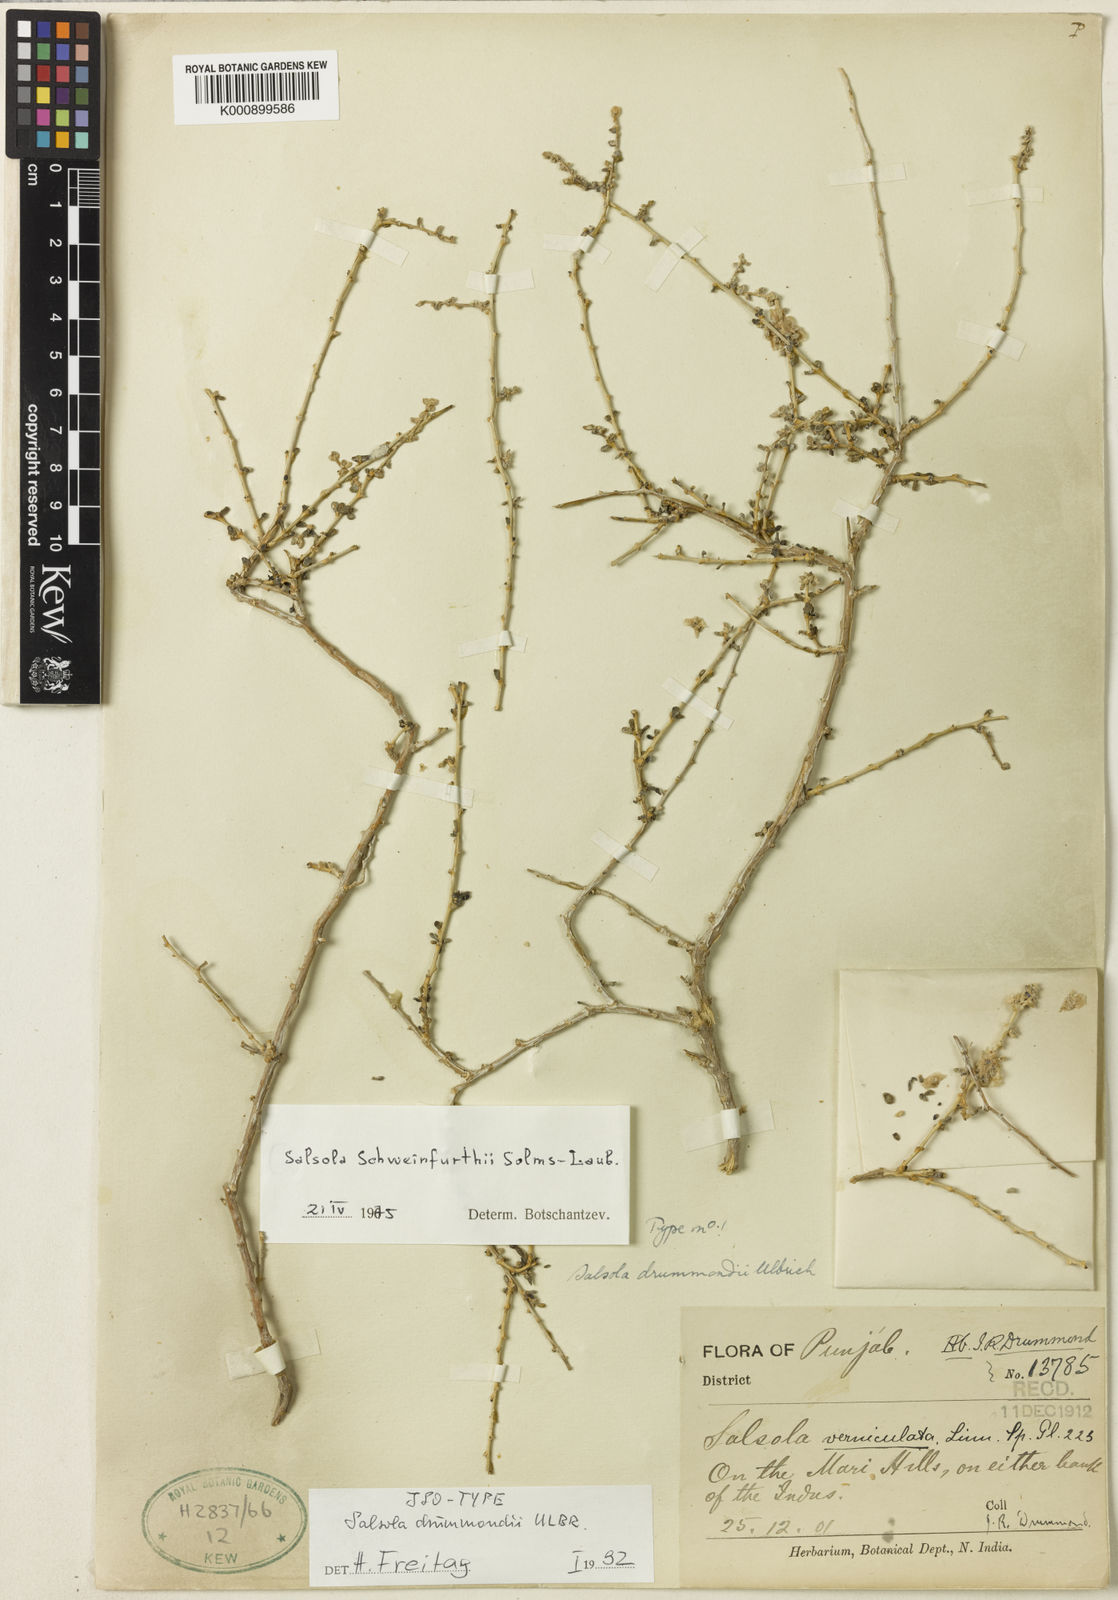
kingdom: Plantae
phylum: Tracheophyta
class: Magnoliopsida
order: Caryophyllales
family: Amaranthaceae
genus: Soda
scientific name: Soda drummondii
